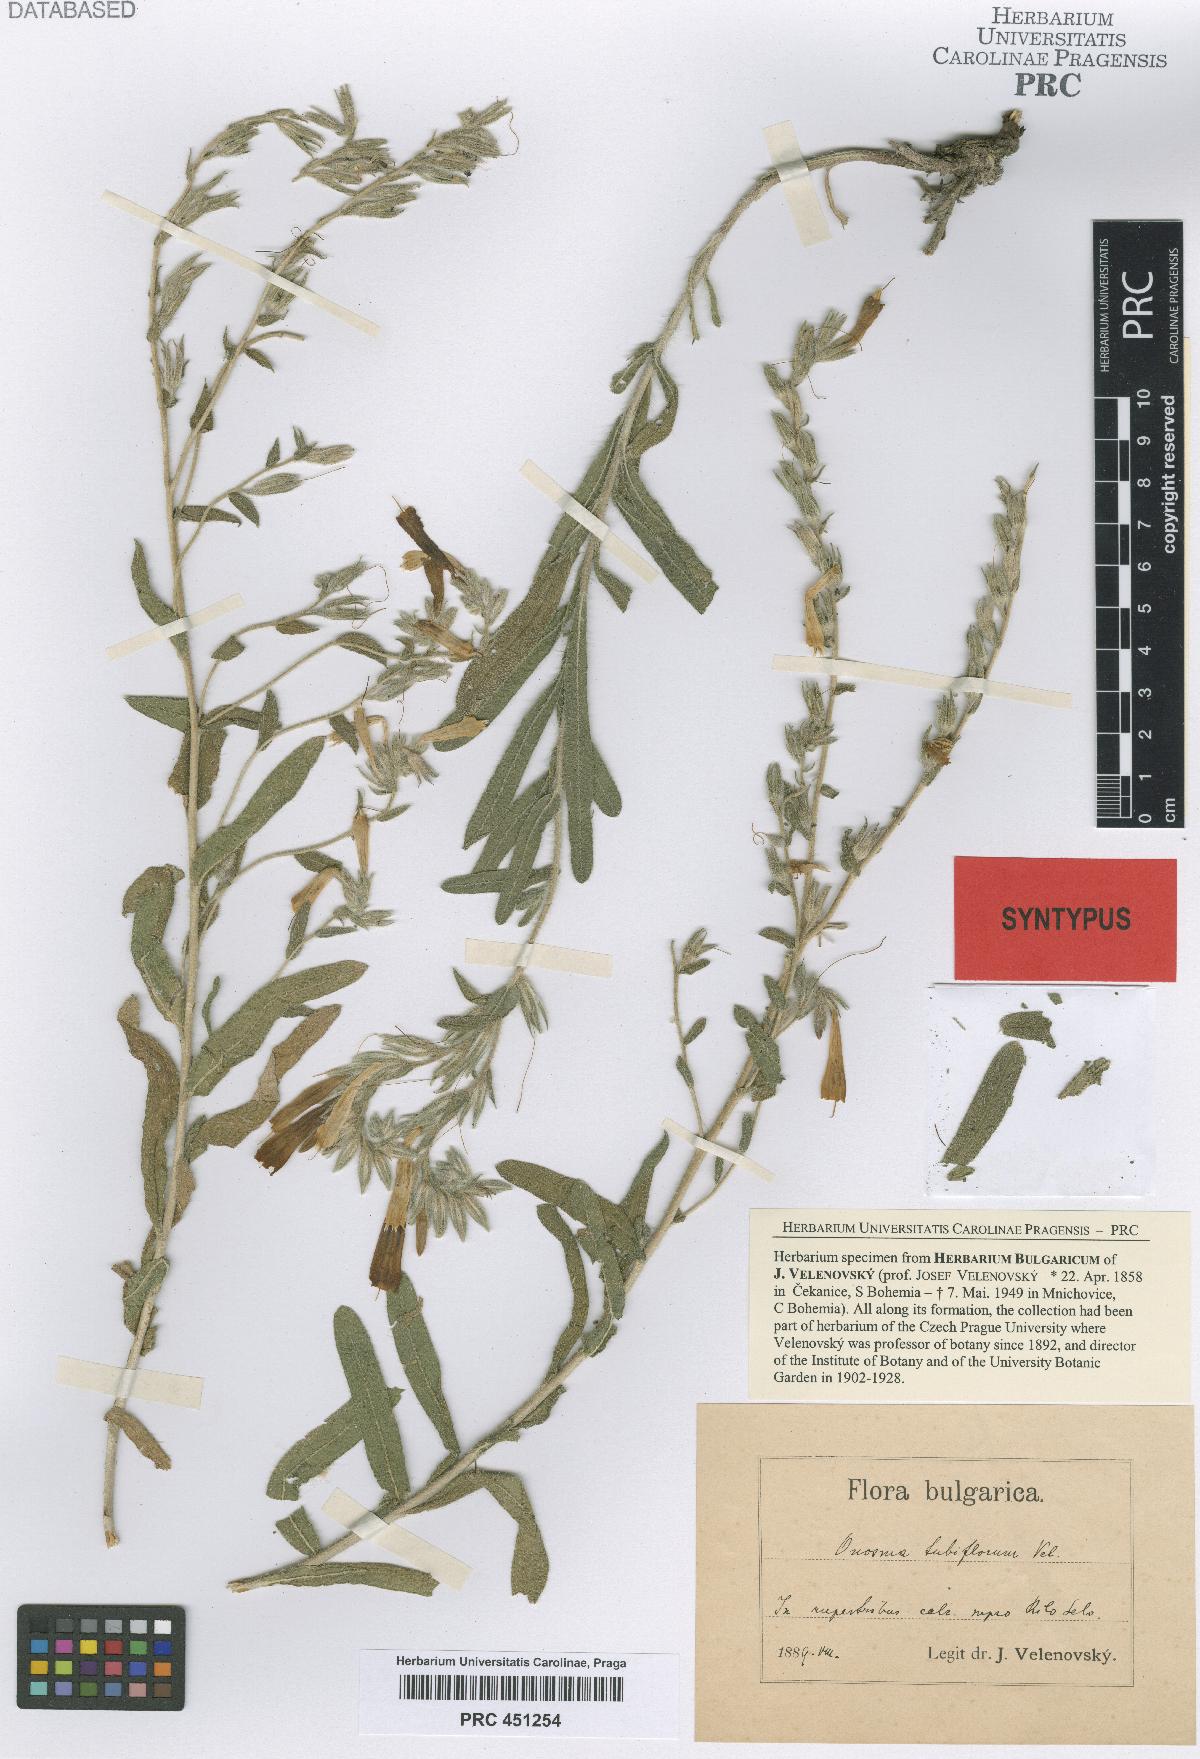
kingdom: Plantae
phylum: Tracheophyta
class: Magnoliopsida
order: Boraginales
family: Boraginaceae
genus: Onosma
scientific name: Onosma heterophylla
